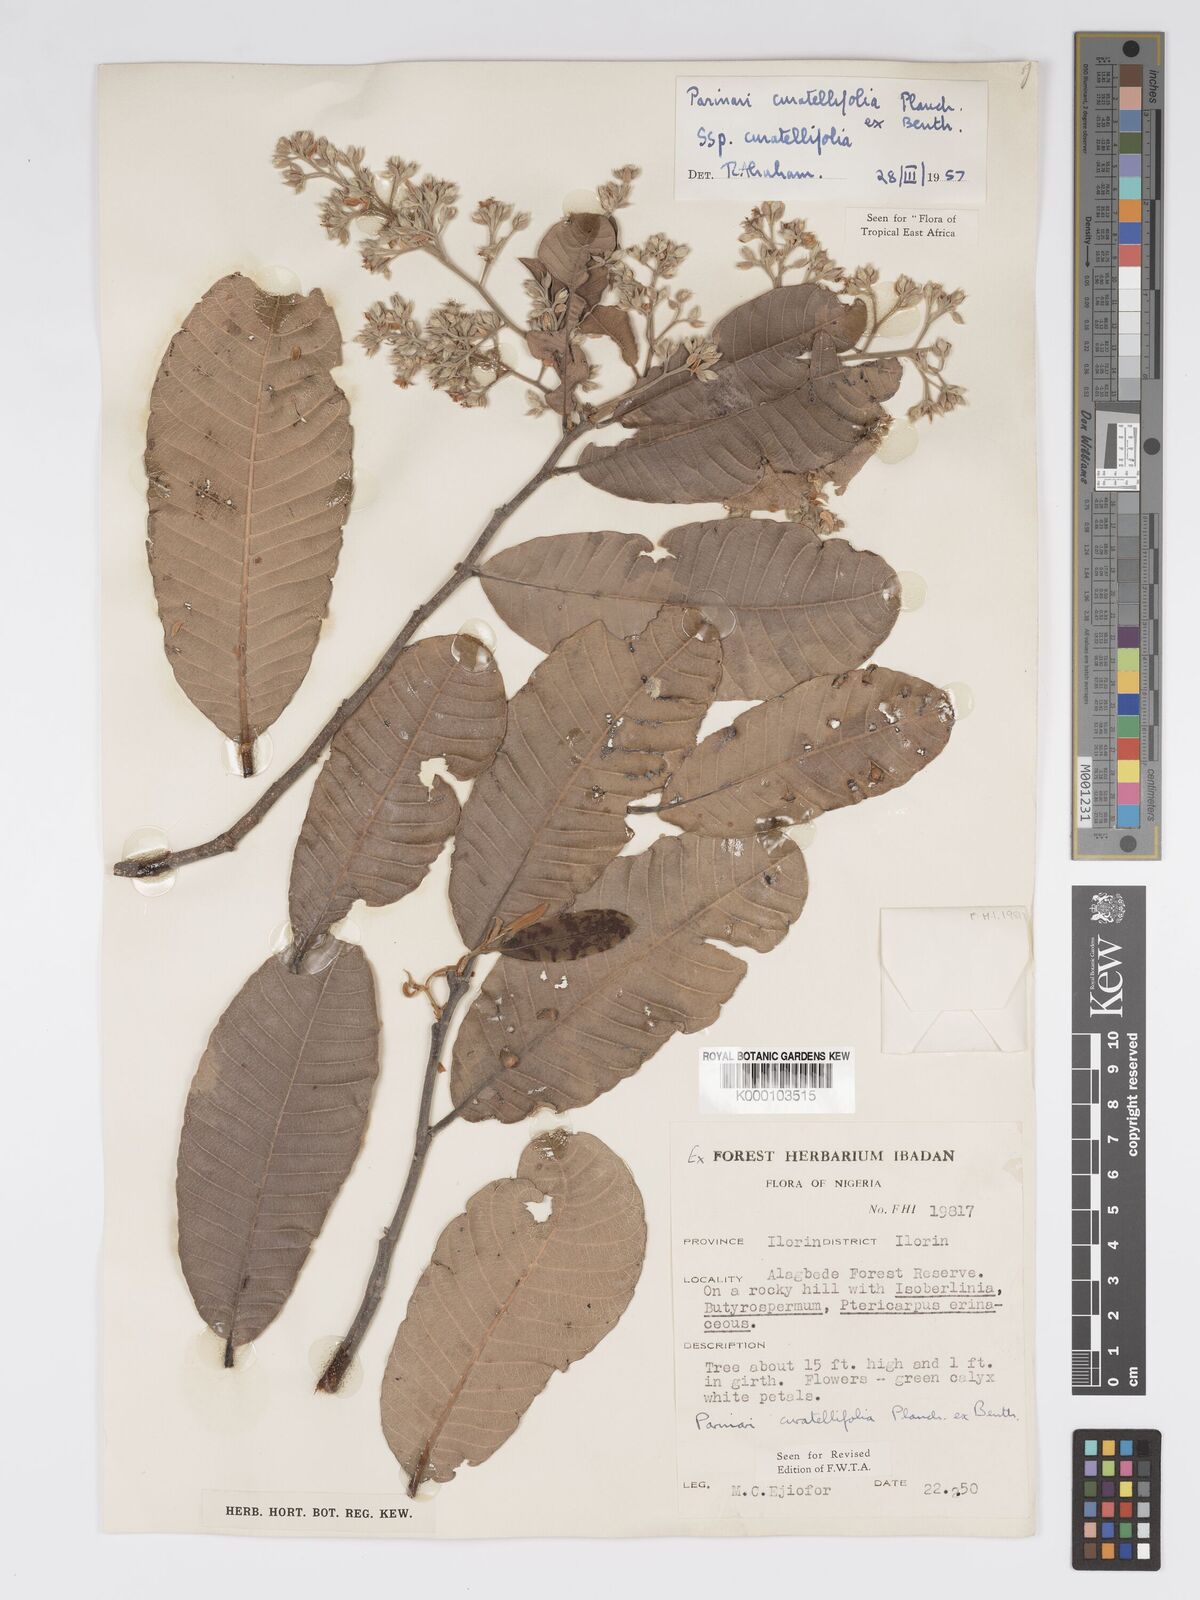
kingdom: Plantae
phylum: Tracheophyta
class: Magnoliopsida
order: Malpighiales
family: Chrysobalanaceae
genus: Parinari
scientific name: Parinari curatellifolia
